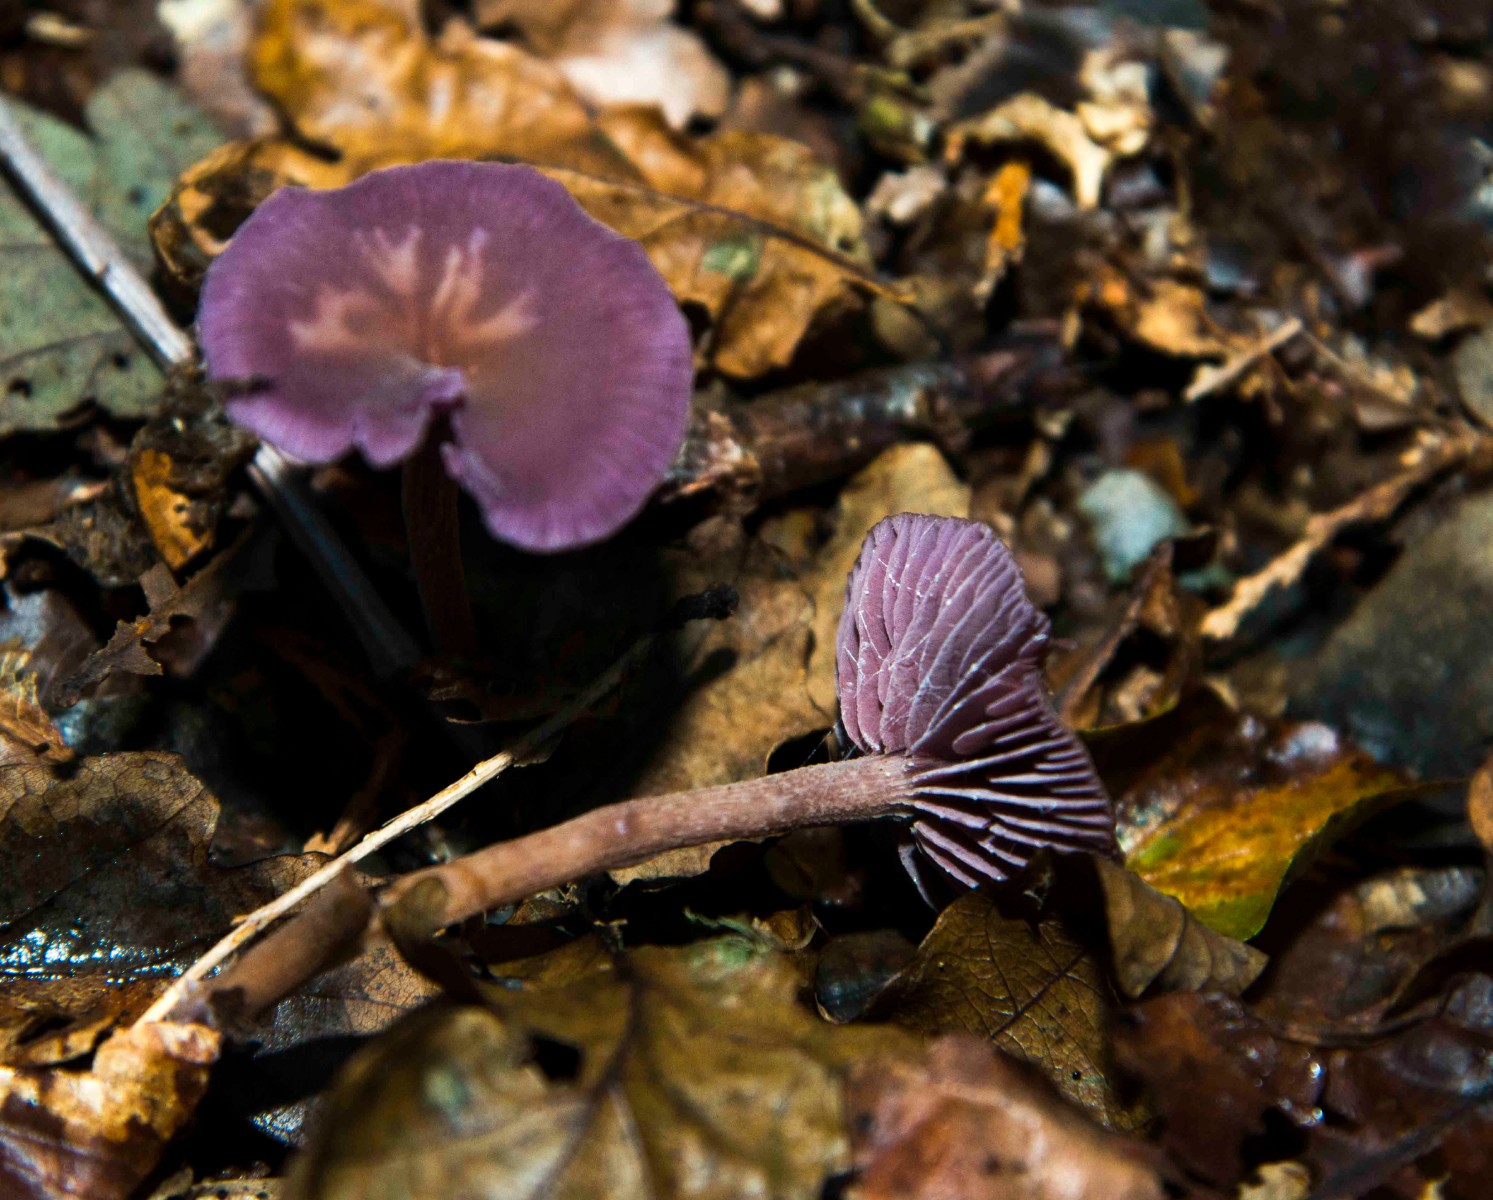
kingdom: Fungi
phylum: Basidiomycota
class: Agaricomycetes
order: Agaricales
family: Hydnangiaceae
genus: Laccaria
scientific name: Laccaria amethystina
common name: violet ametysthat
